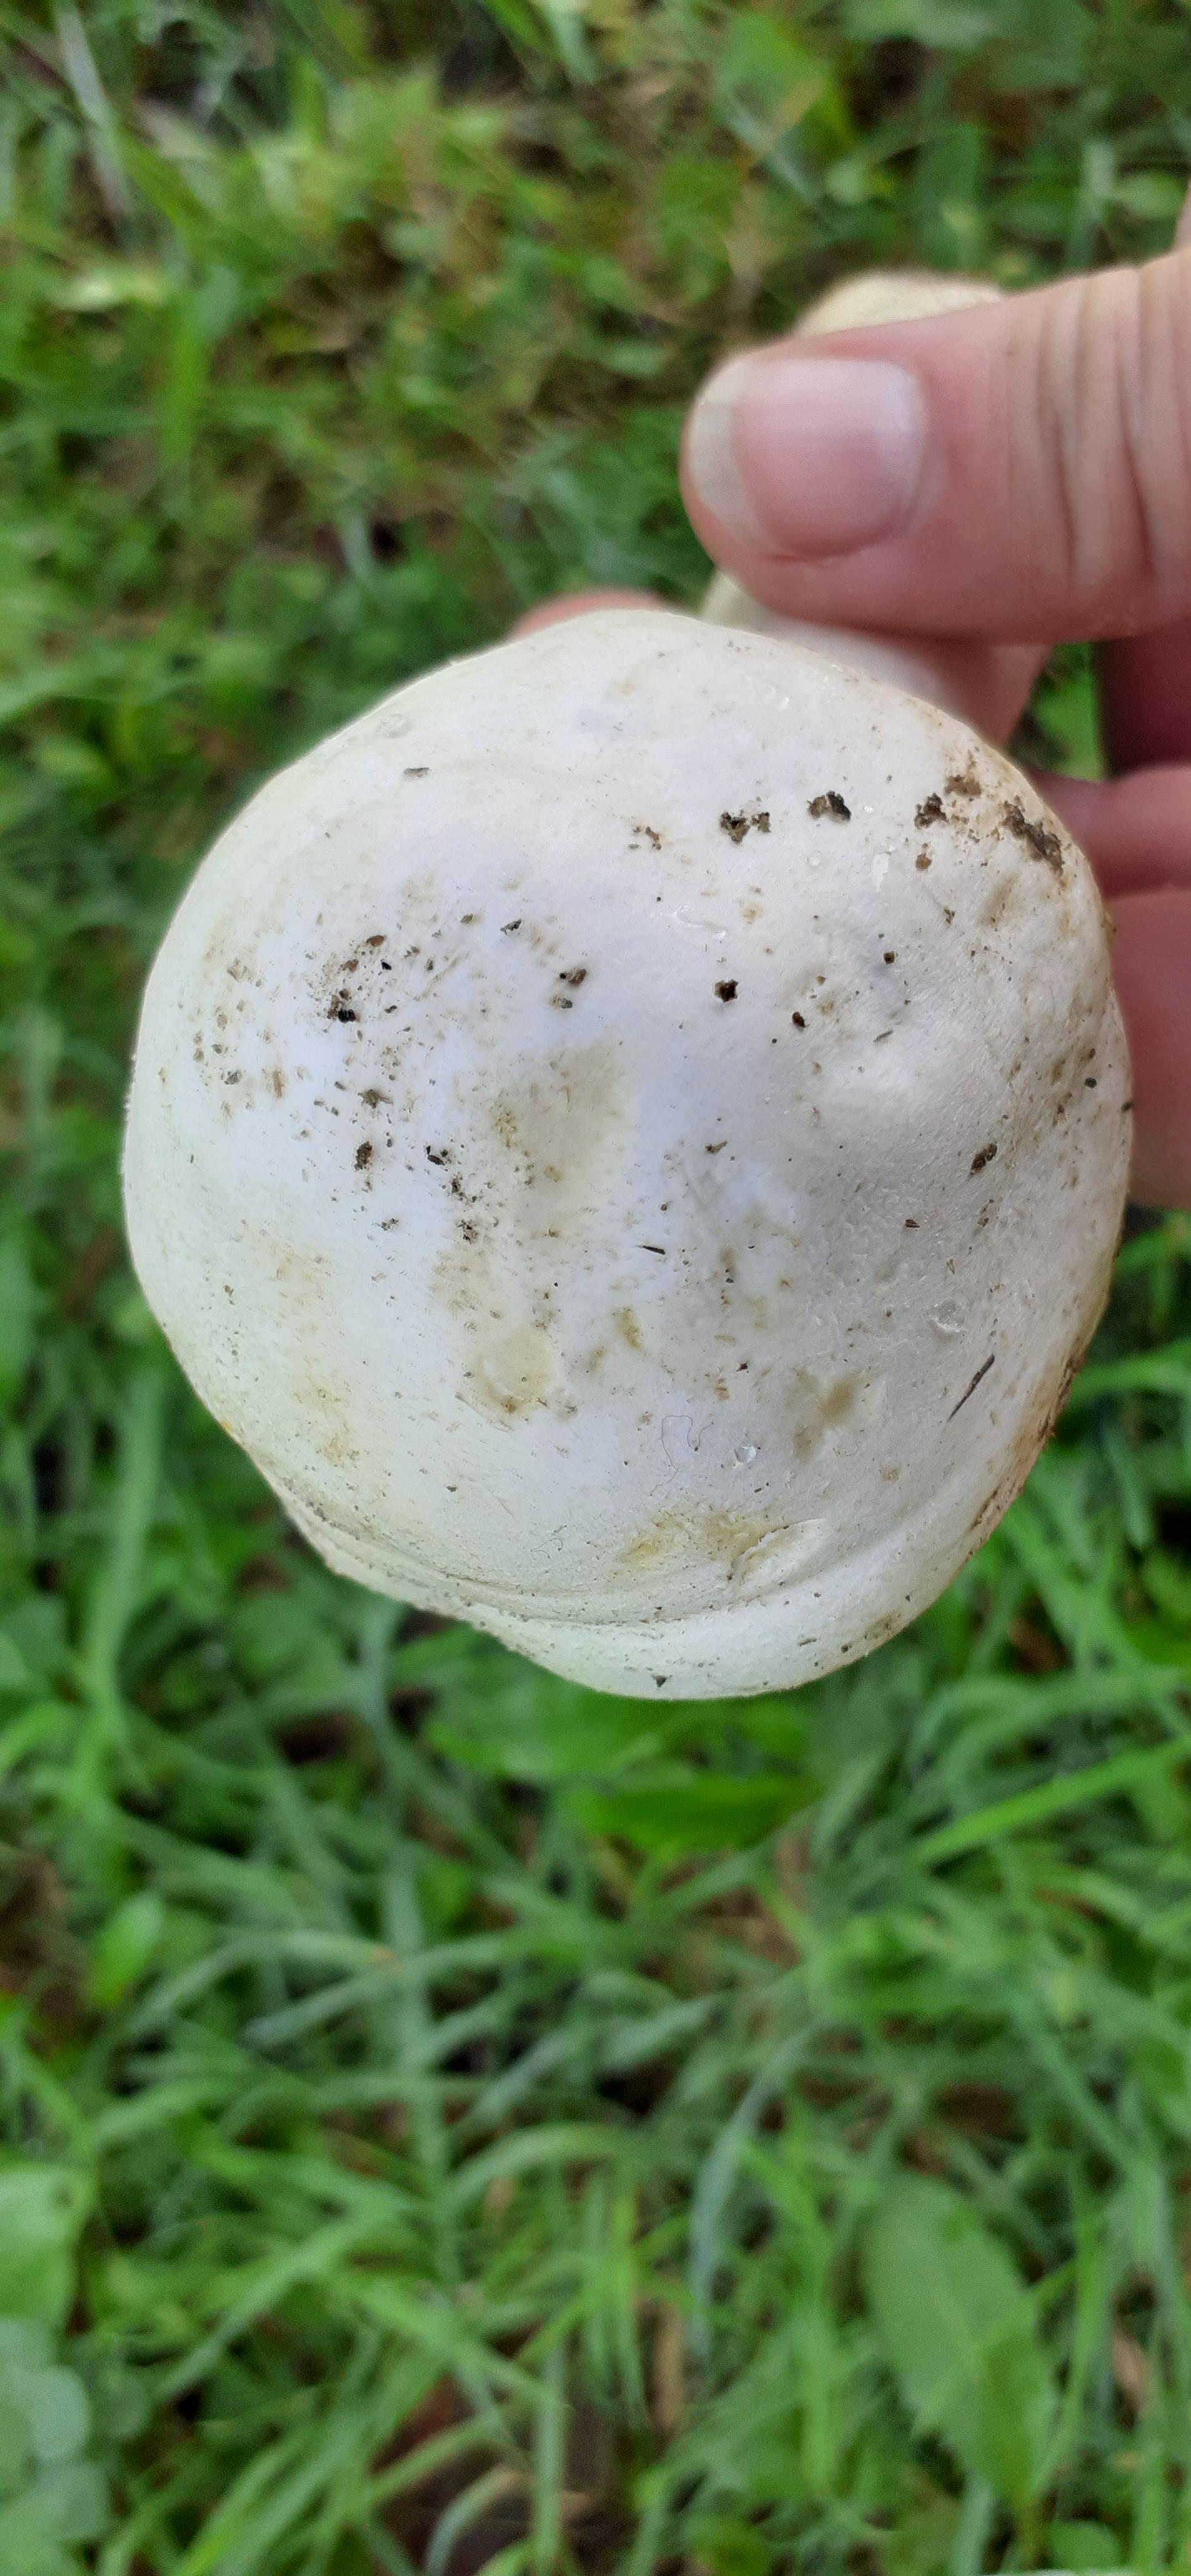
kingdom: Fungi
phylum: Basidiomycota
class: Agaricomycetes
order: Agaricales
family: Agaricaceae
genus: Agaricus
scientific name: Agaricus arvensis
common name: ager-champignon
